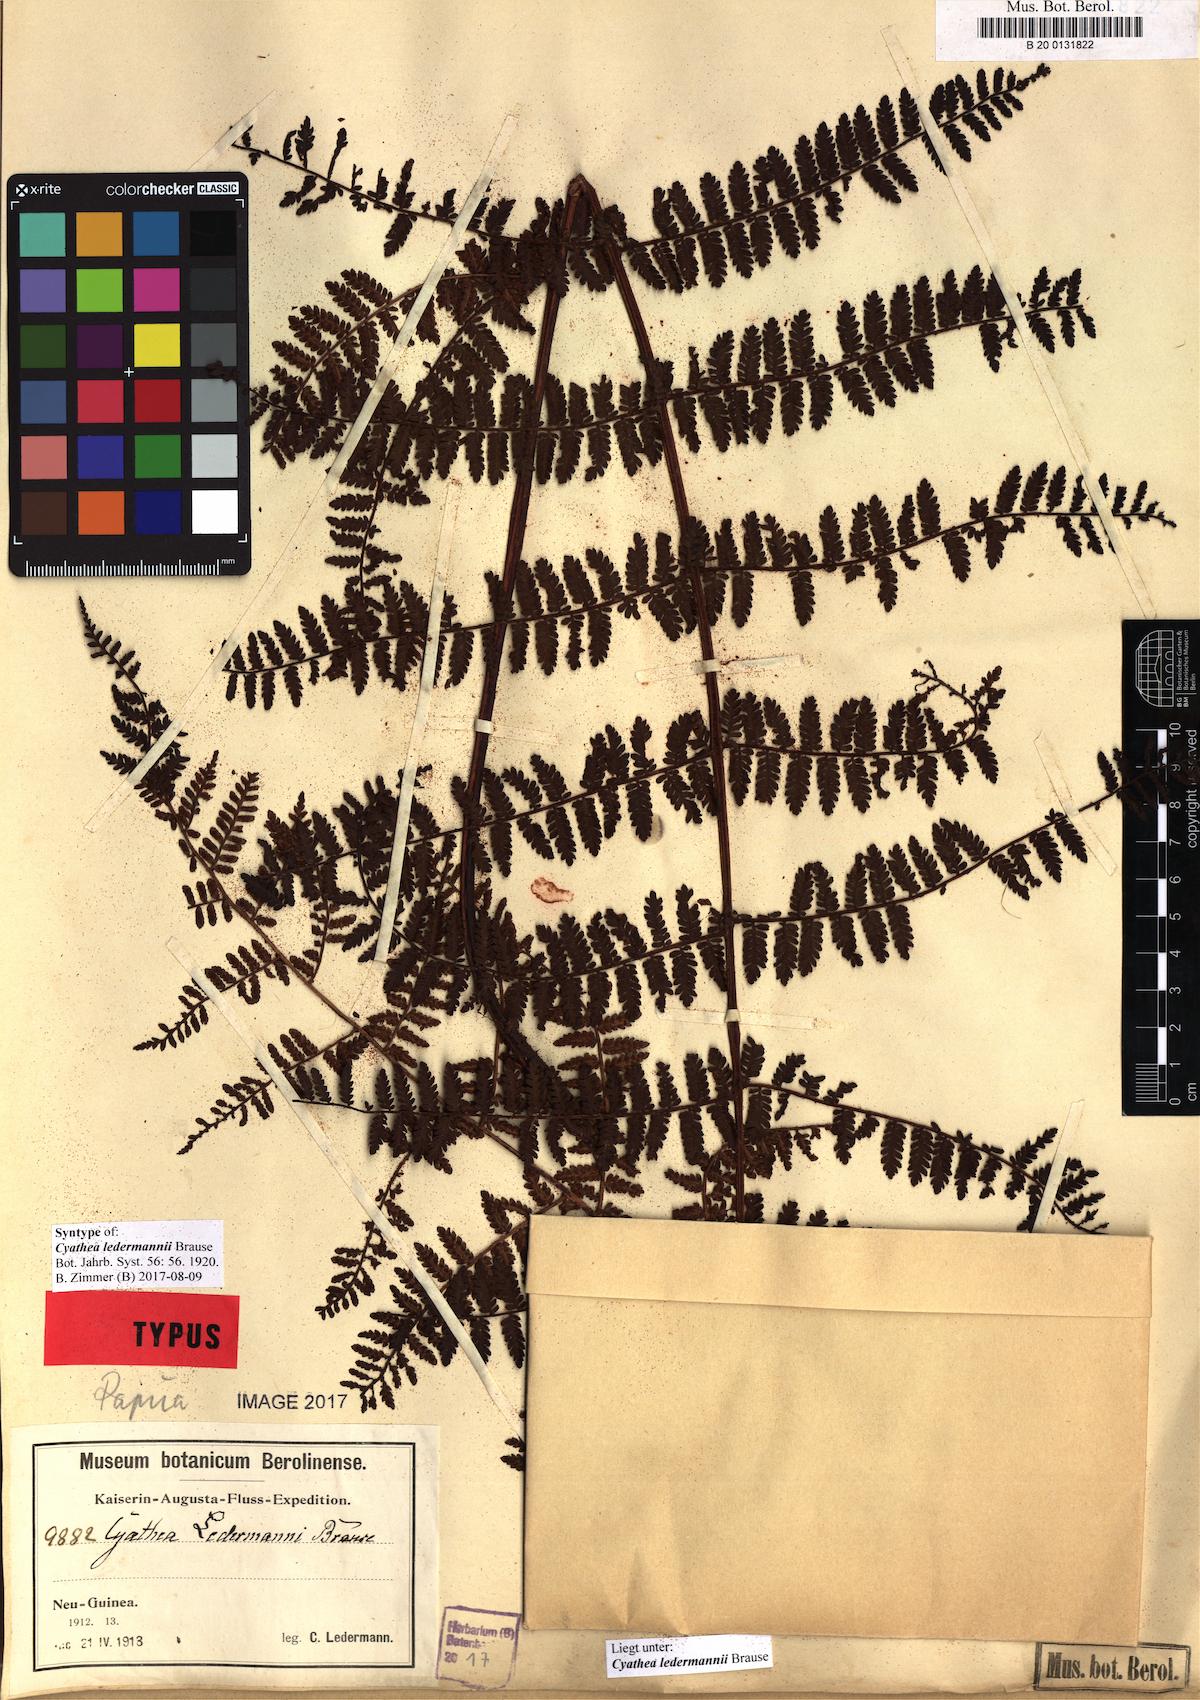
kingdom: Plantae
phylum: Tracheophyta
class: Polypodiopsida
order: Cyatheales
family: Cyatheaceae
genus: Sphaeropteris
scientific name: Sphaeropteris ledermannii
